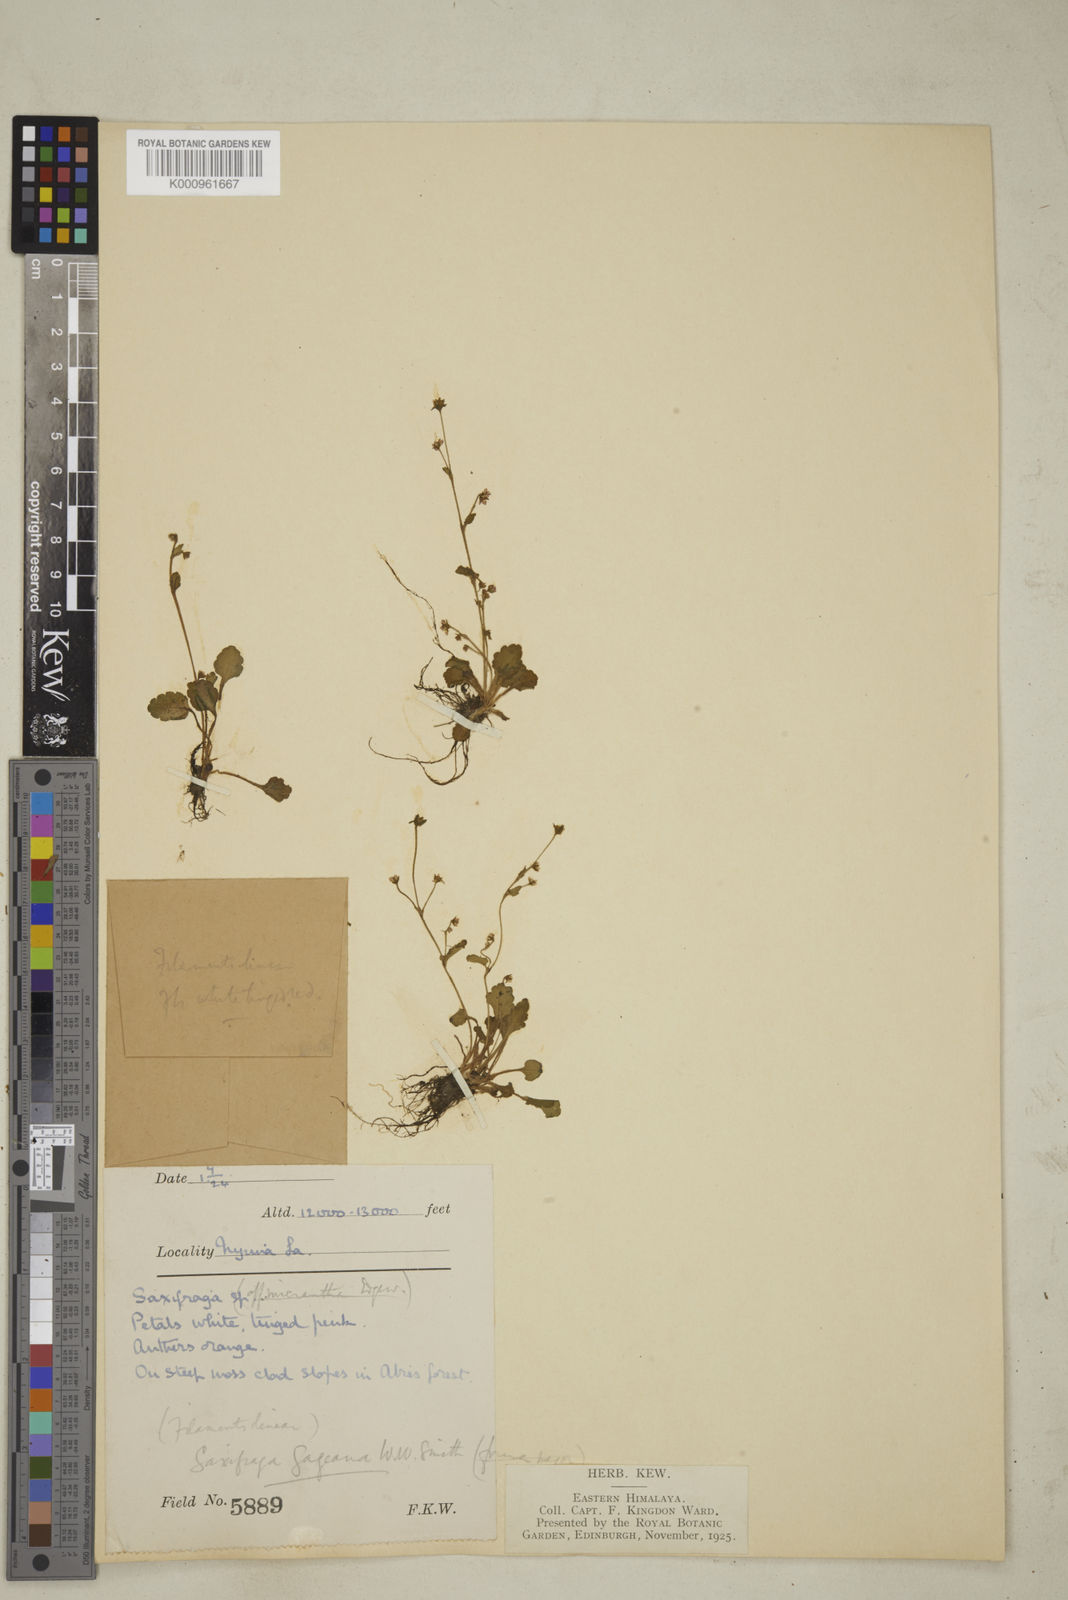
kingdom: Plantae
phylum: Tracheophyta
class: Magnoliopsida
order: Saxifragales
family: Saxifragaceae
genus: Micranthes
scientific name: Micranthes gageana
